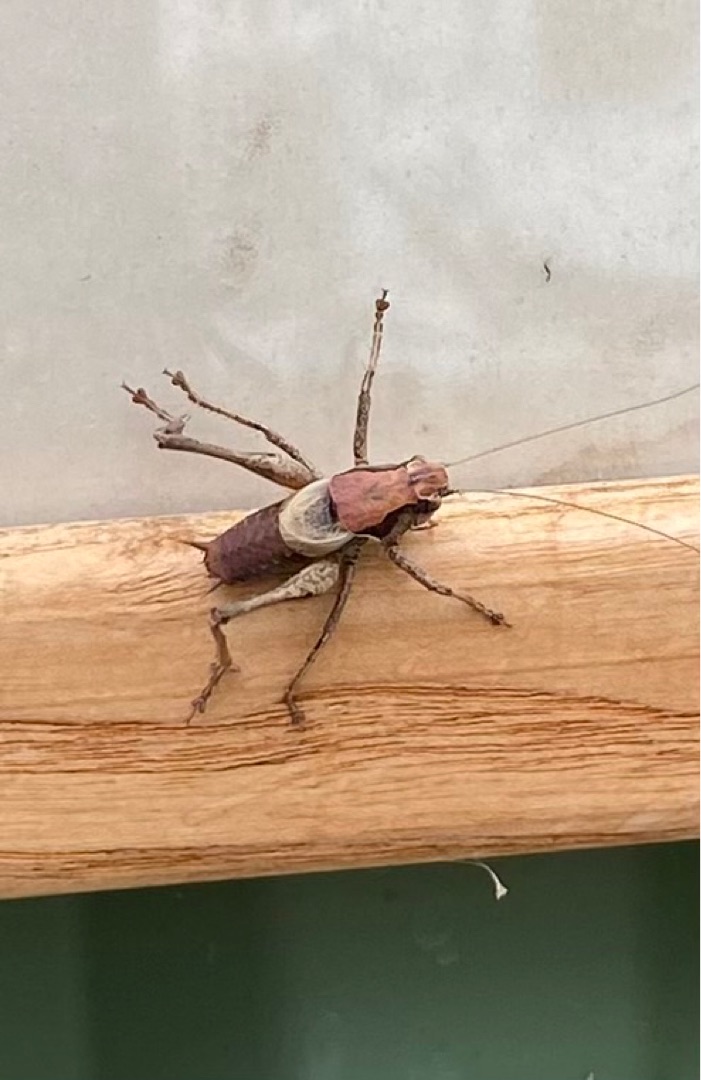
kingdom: Animalia
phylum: Arthropoda
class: Insecta
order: Orthoptera
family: Tettigoniidae
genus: Pholidoptera
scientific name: Pholidoptera griseoaptera
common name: Buskgræshoppe
